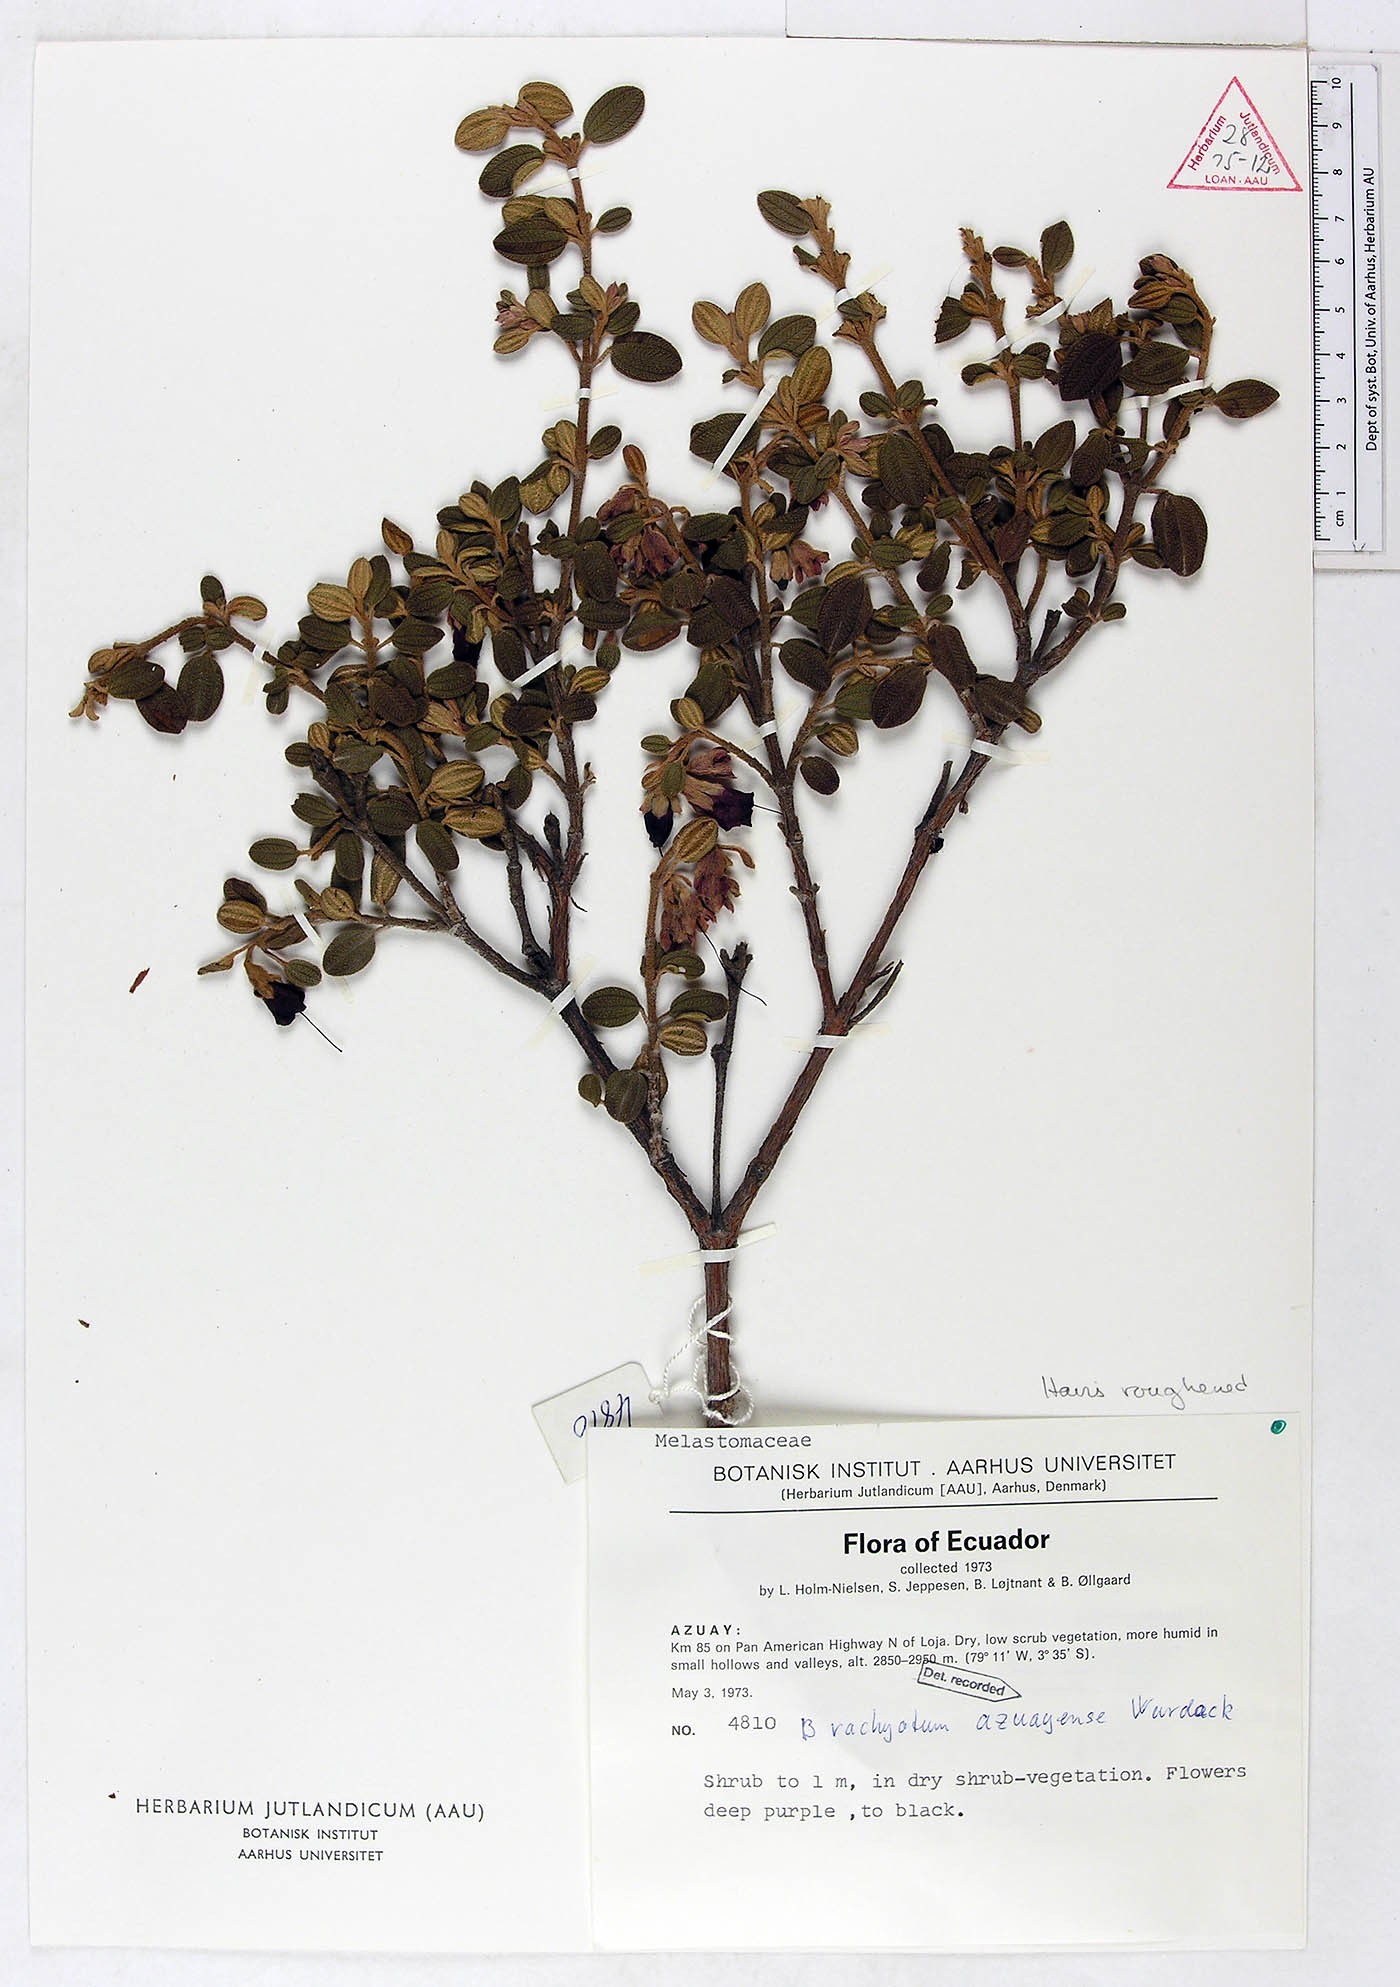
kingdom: Plantae
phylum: Tracheophyta
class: Magnoliopsida
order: Myrtales
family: Melastomataceae
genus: Brachyotum
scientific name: Brachyotum azuayense
